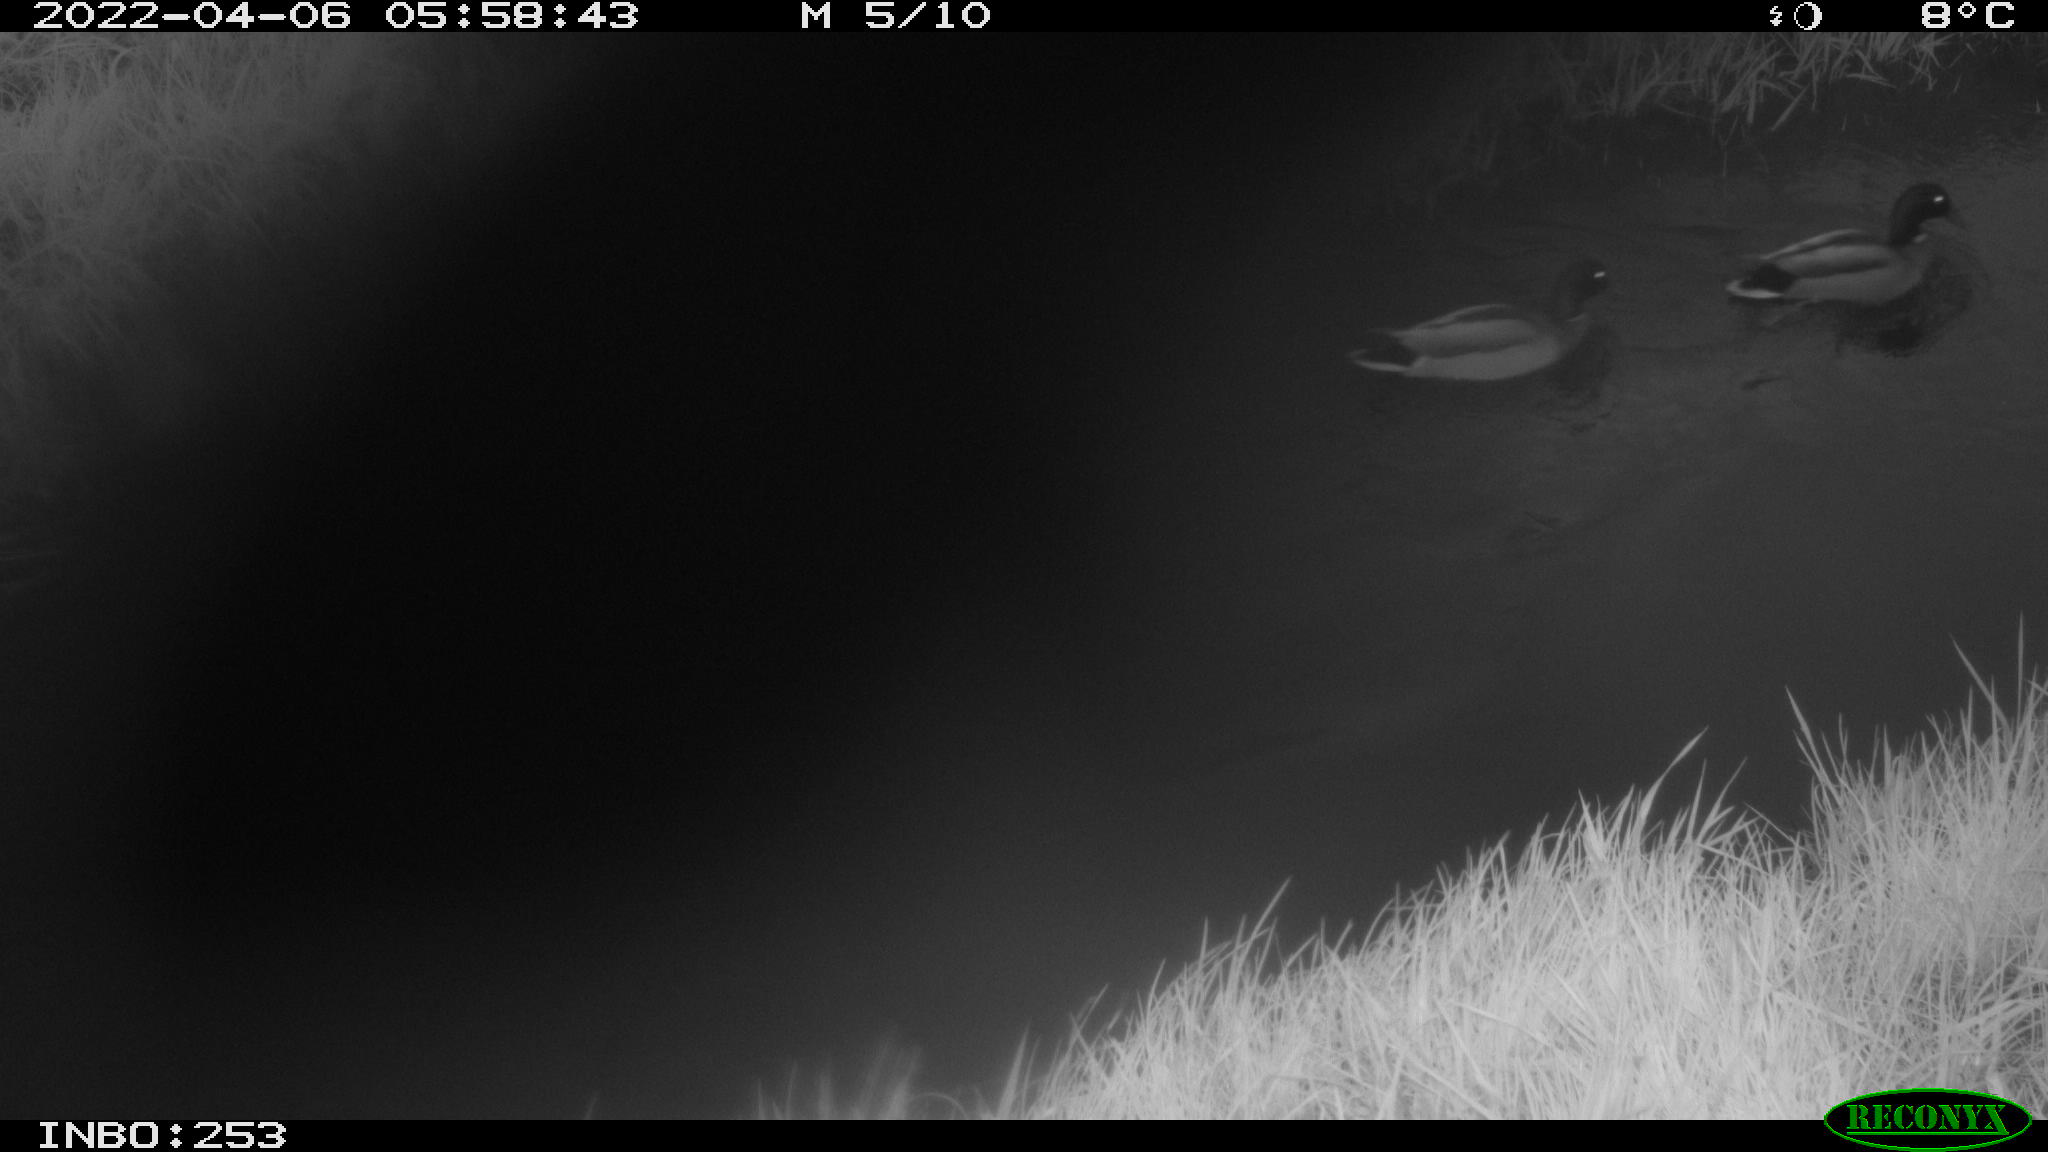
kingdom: Animalia
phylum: Chordata
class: Aves
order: Anseriformes
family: Anatidae
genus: Anas
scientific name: Anas platyrhynchos
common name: Mallard
